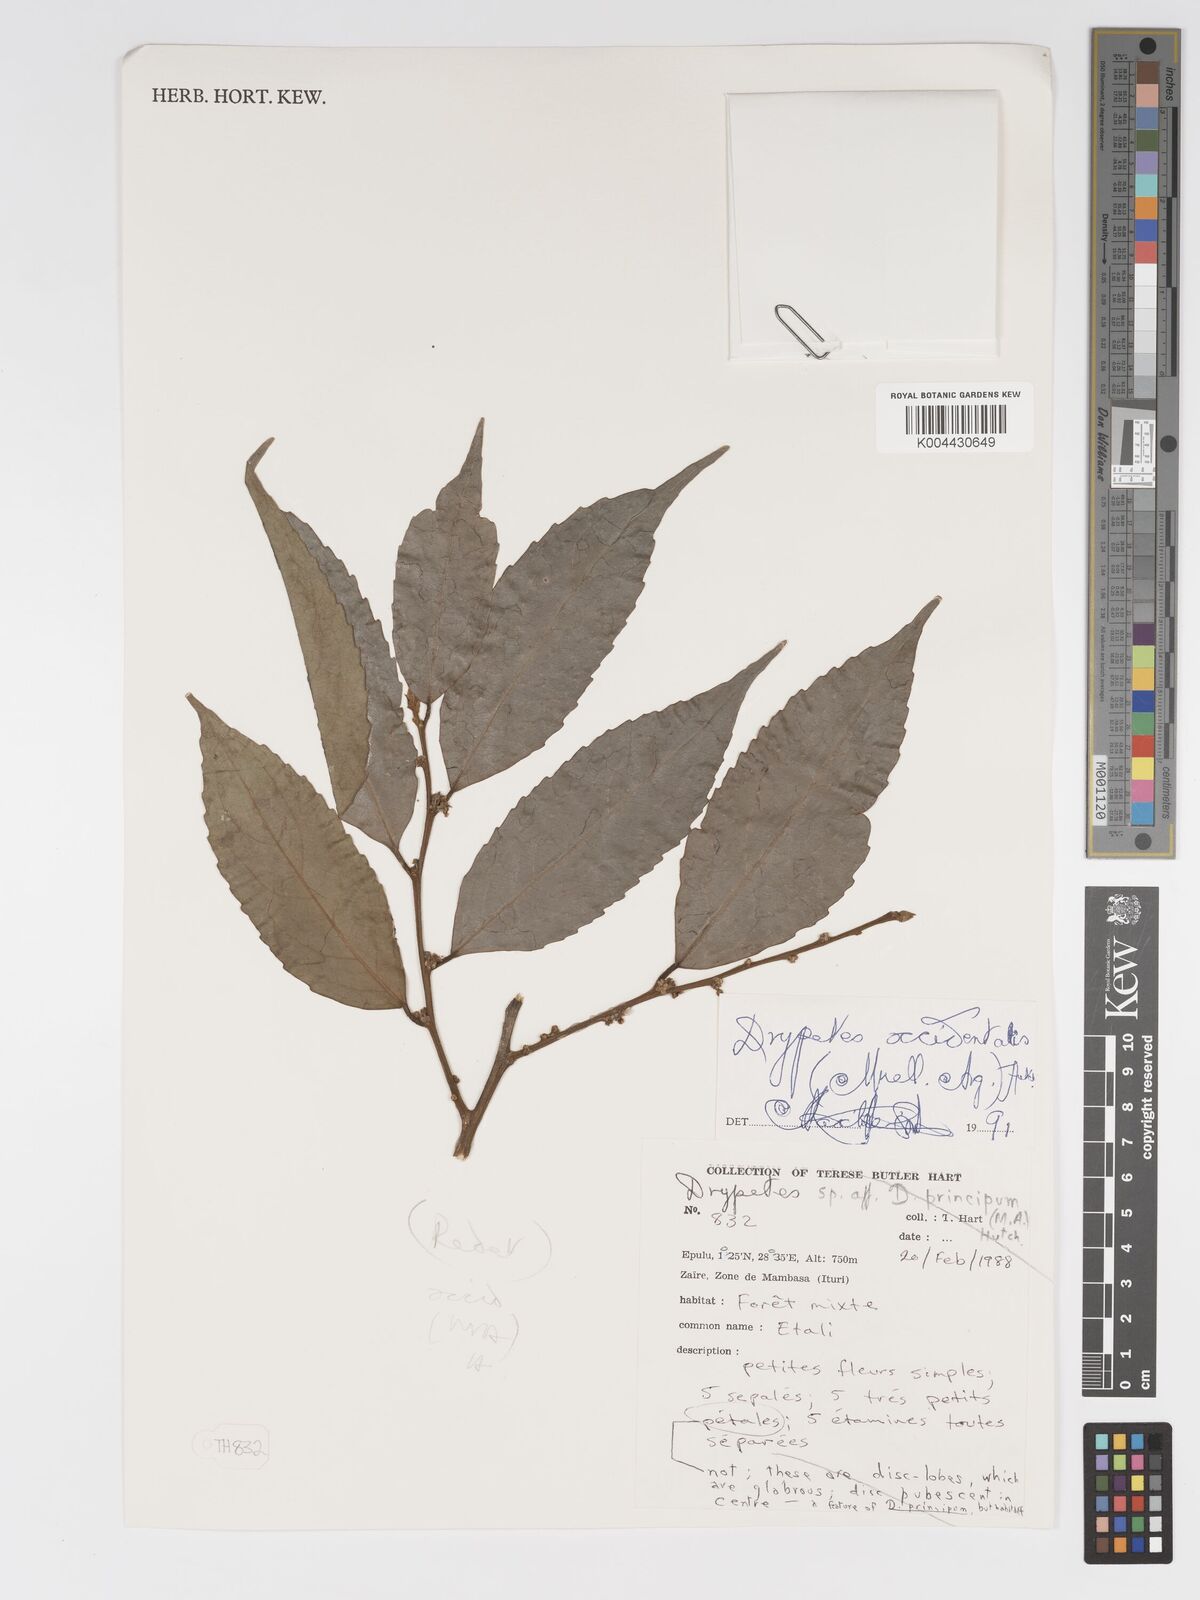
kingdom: Plantae
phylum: Tracheophyta
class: Magnoliopsida
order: Malpighiales
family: Putranjivaceae
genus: Drypetes
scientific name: Drypetes occidentalis
